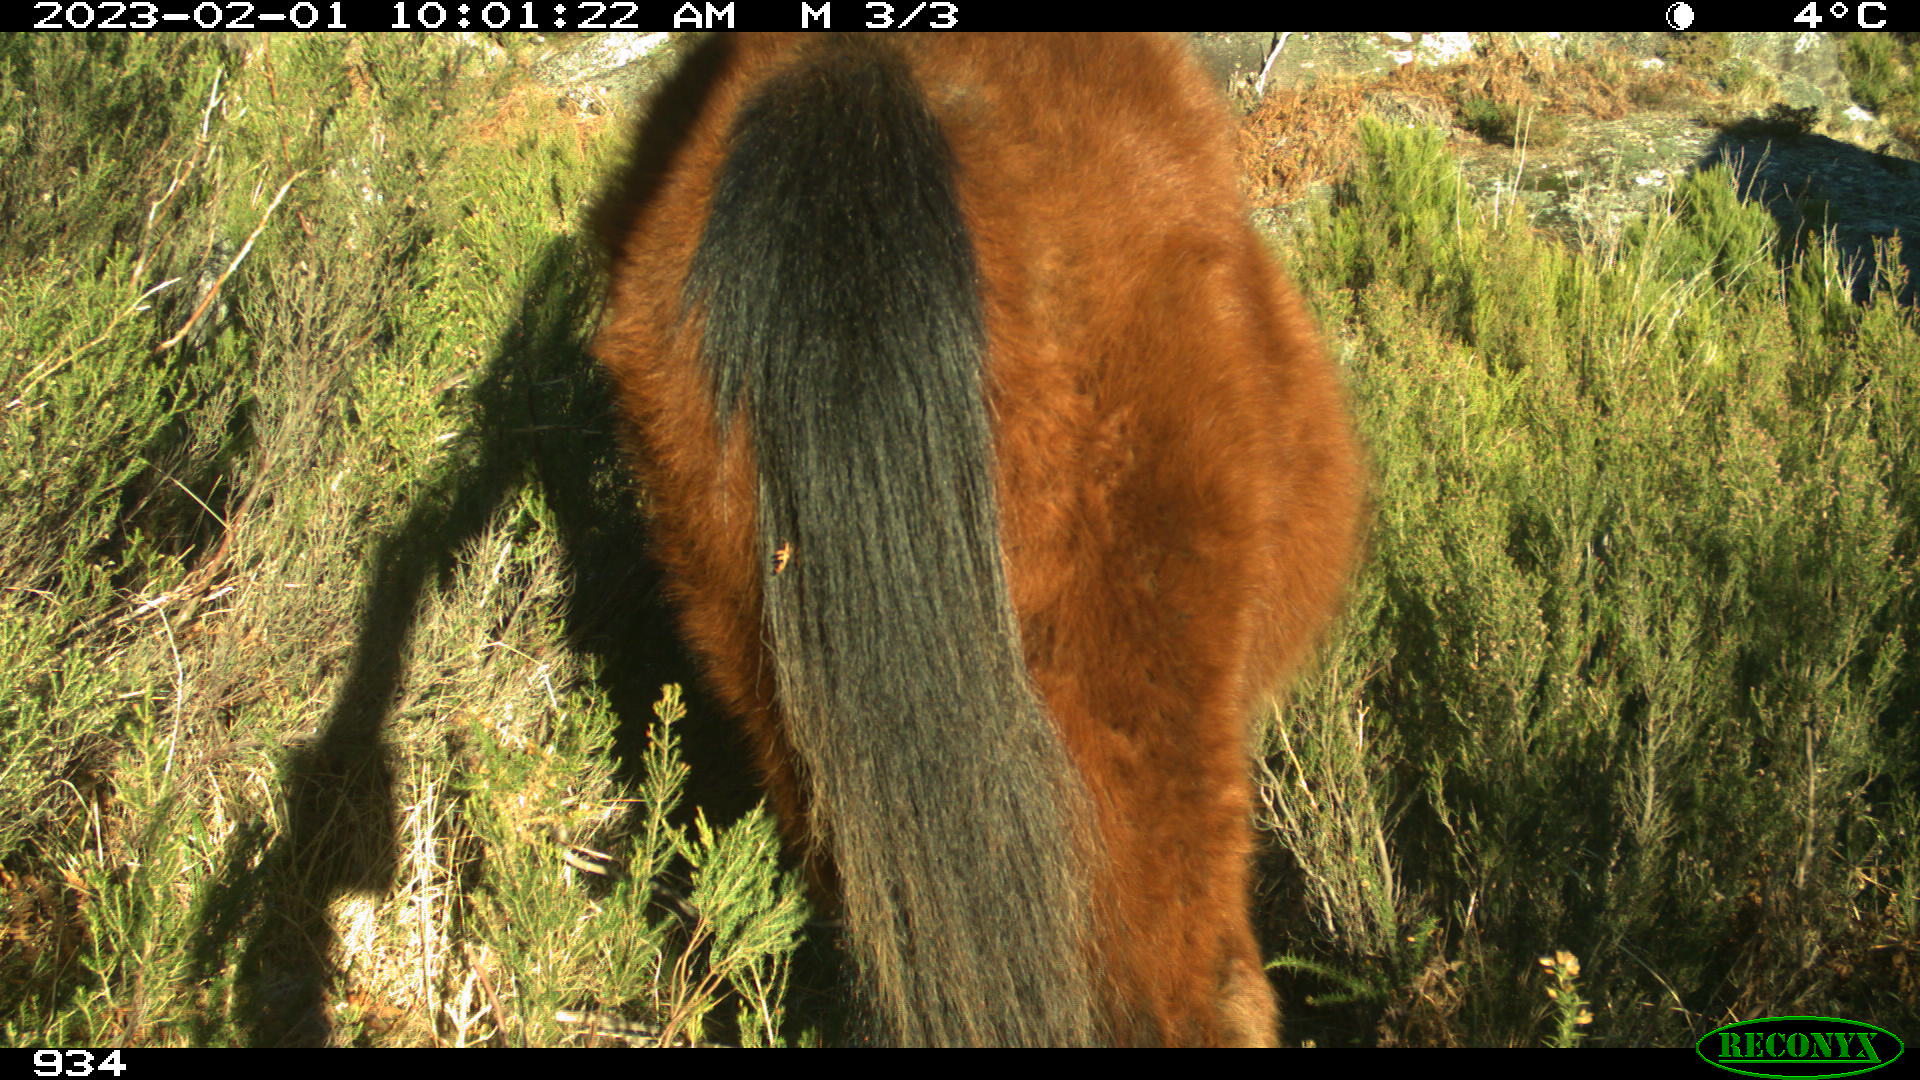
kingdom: Animalia
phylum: Chordata
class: Mammalia
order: Perissodactyla
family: Equidae
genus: Equus
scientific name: Equus caballus
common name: Horse
